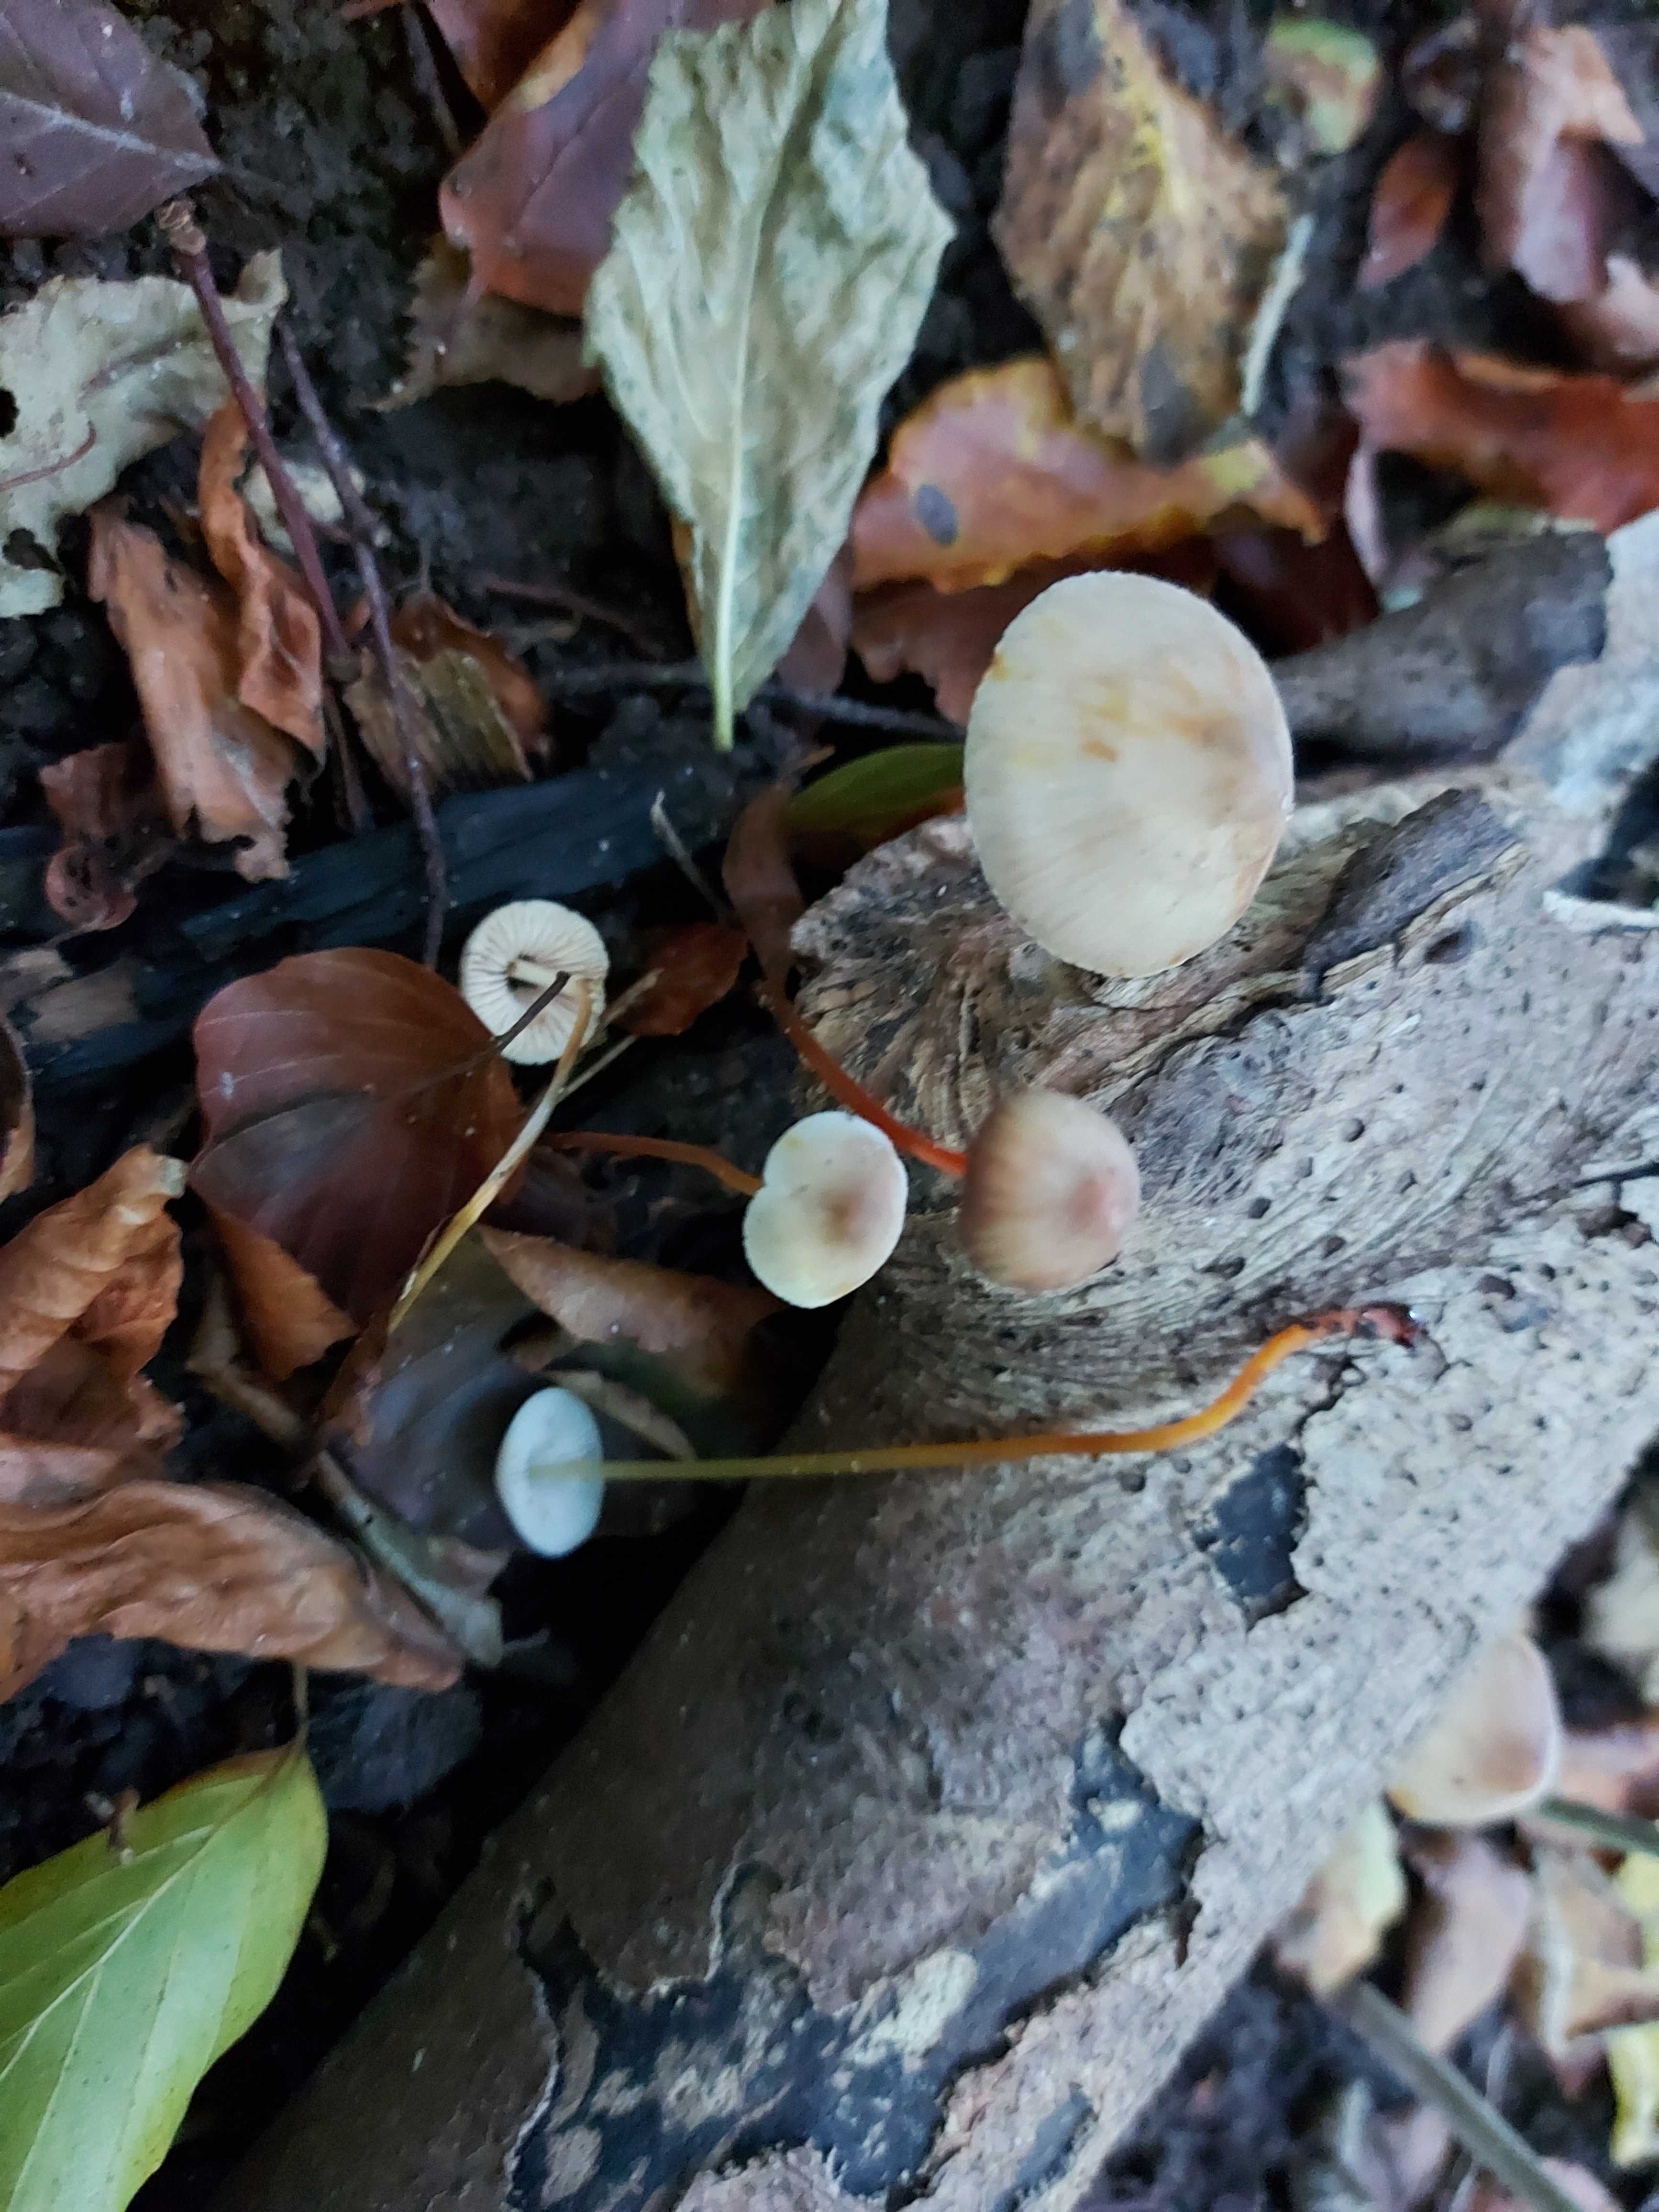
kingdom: Fungi
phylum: Basidiomycota
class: Agaricomycetes
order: Agaricales
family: Mycenaceae
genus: Mycena
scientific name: Mycena crocata
